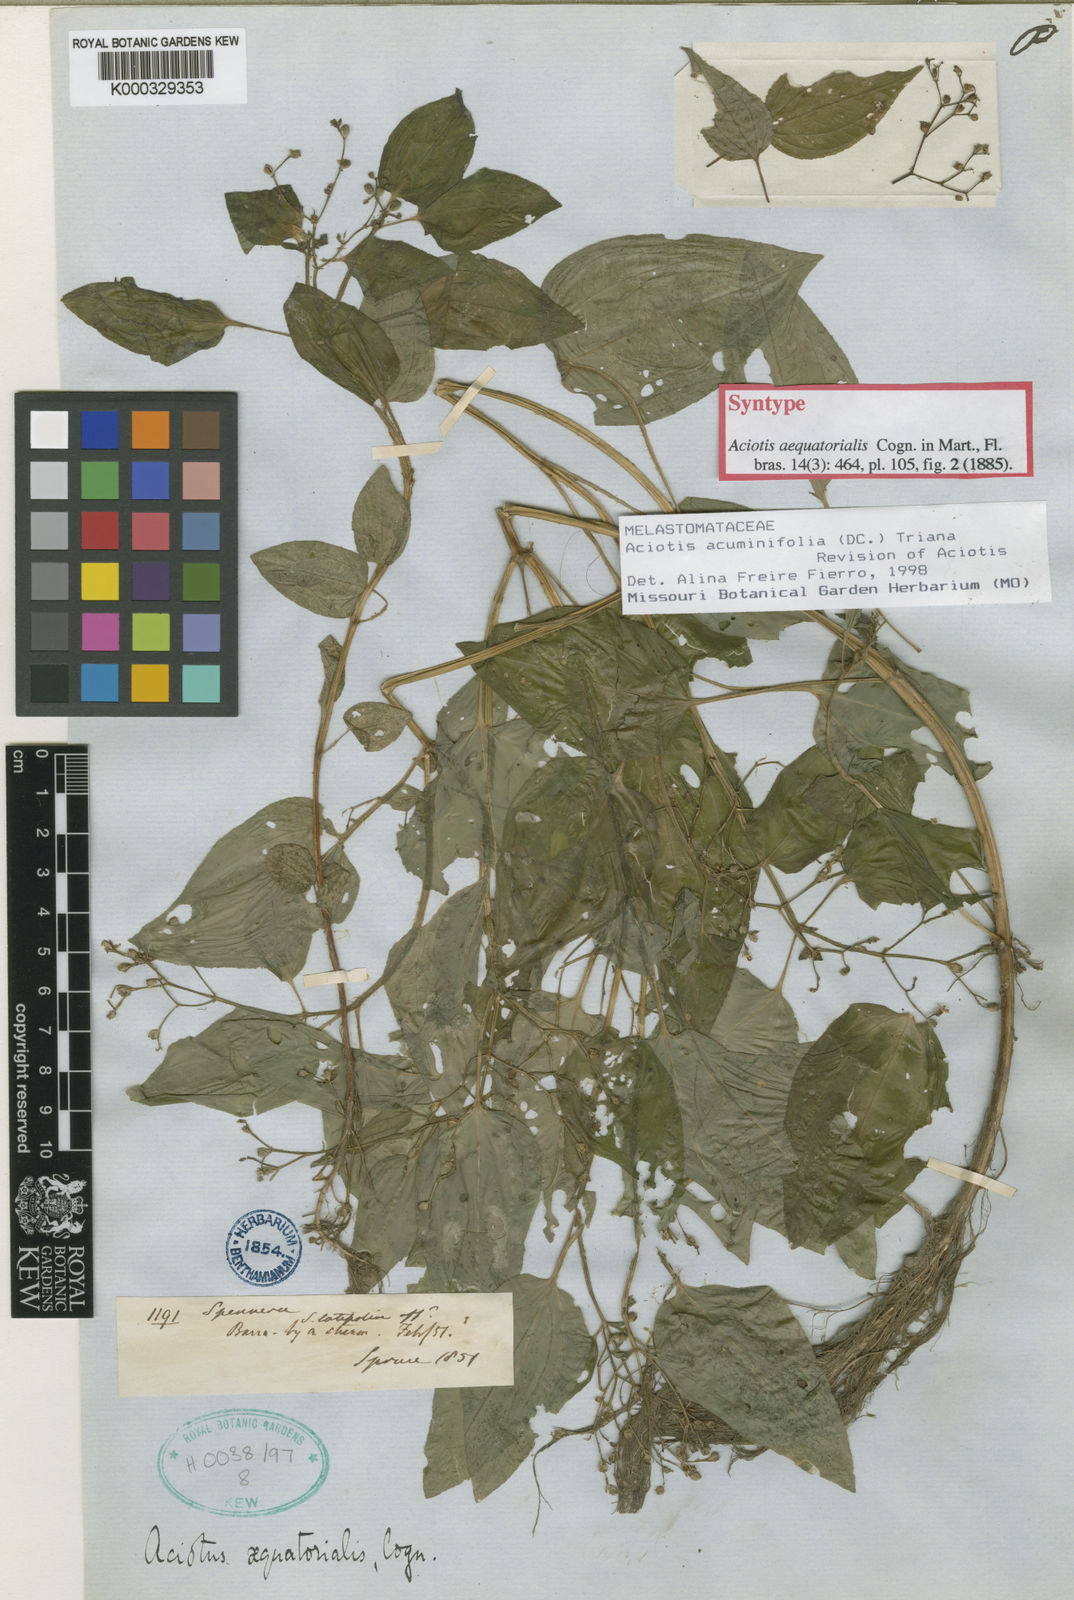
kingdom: Plantae
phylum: Tracheophyta
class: Magnoliopsida
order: Myrtales
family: Melastomataceae
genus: Aciotis
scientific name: Aciotis acuminifolia
